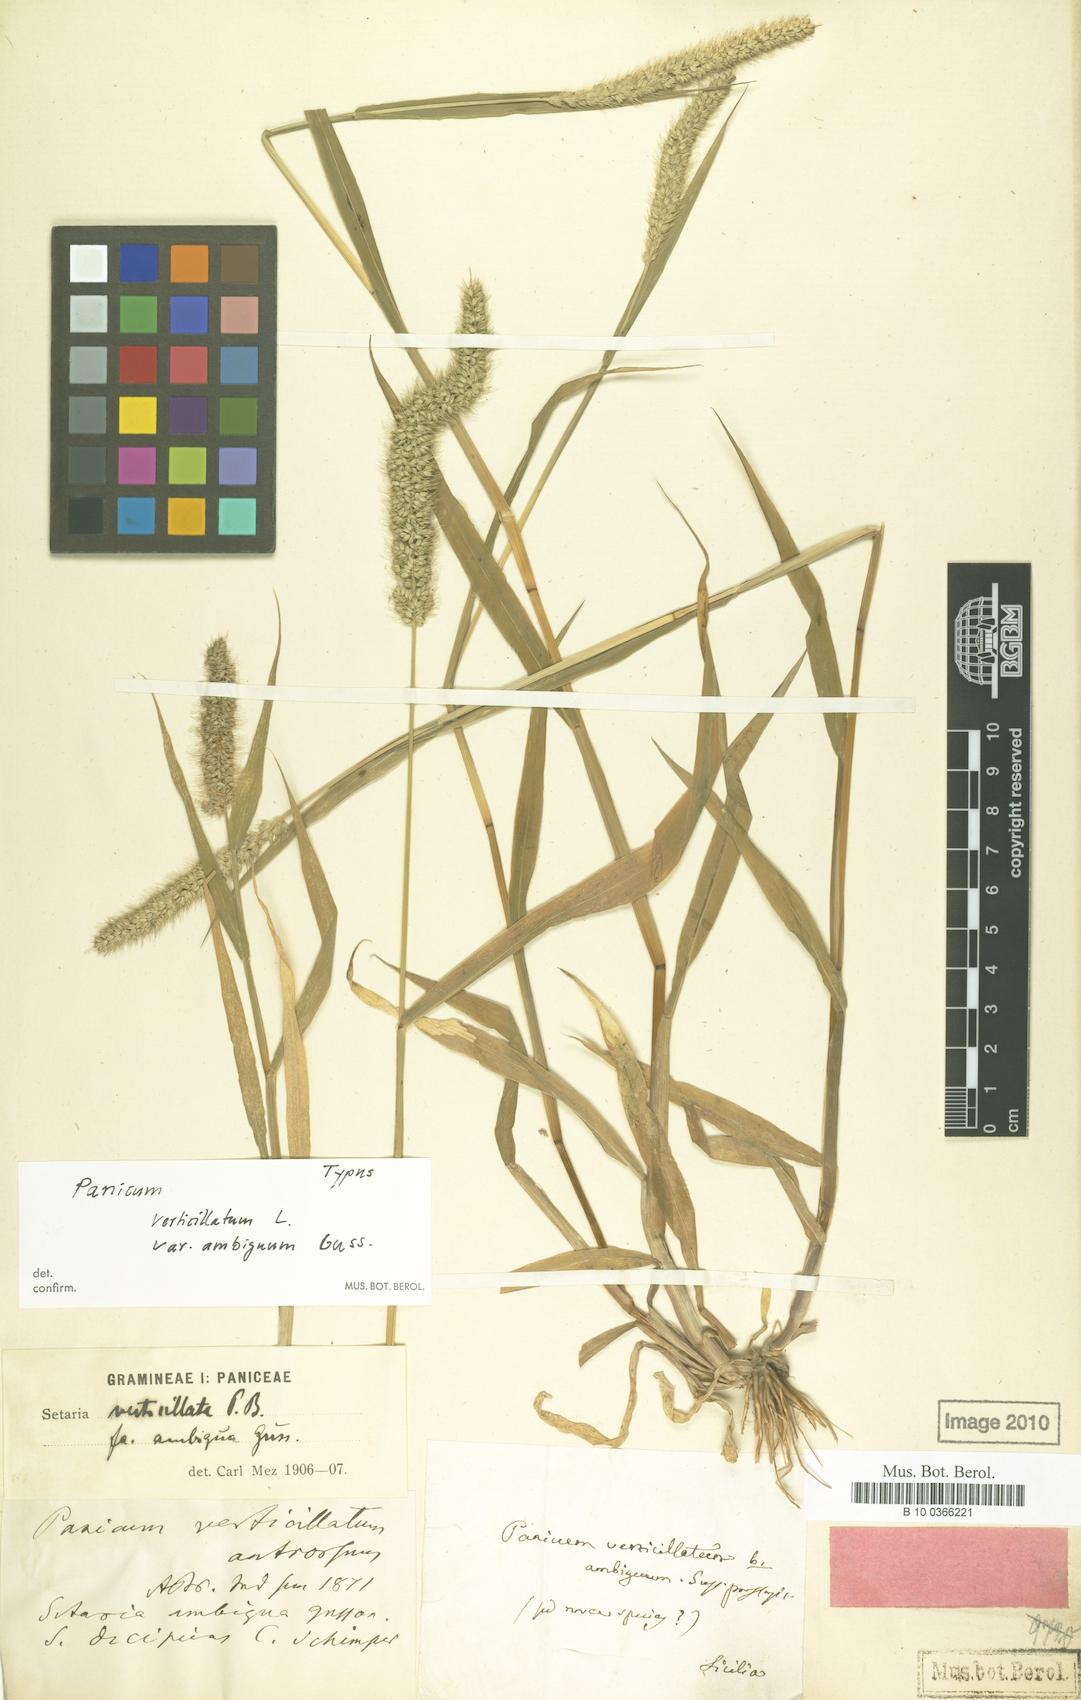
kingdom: Plantae
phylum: Tracheophyta
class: Liliopsida
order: Poales
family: Poaceae
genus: Setaria
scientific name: Setaria verticillata
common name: Hooked bristlegrass
